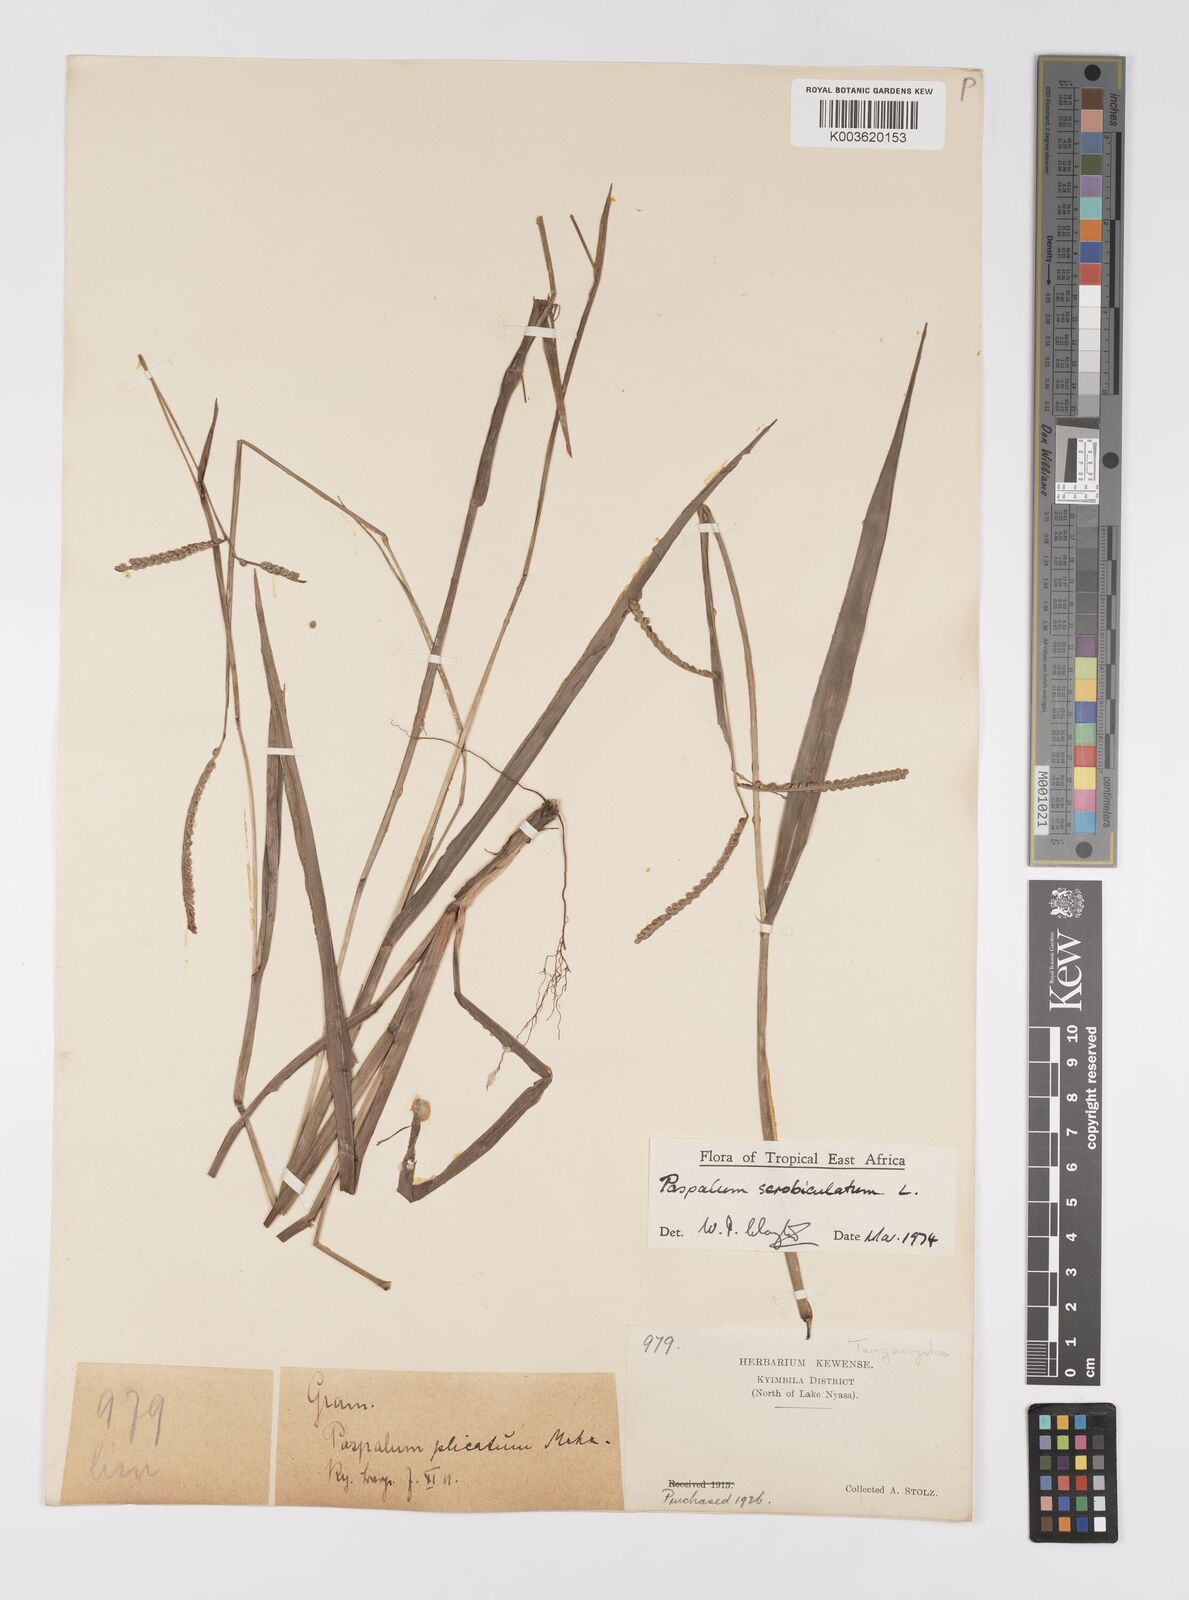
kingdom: Plantae
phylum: Tracheophyta
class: Liliopsida
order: Poales
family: Poaceae
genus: Paspalum
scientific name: Paspalum scrobiculatum
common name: Kodo millet
